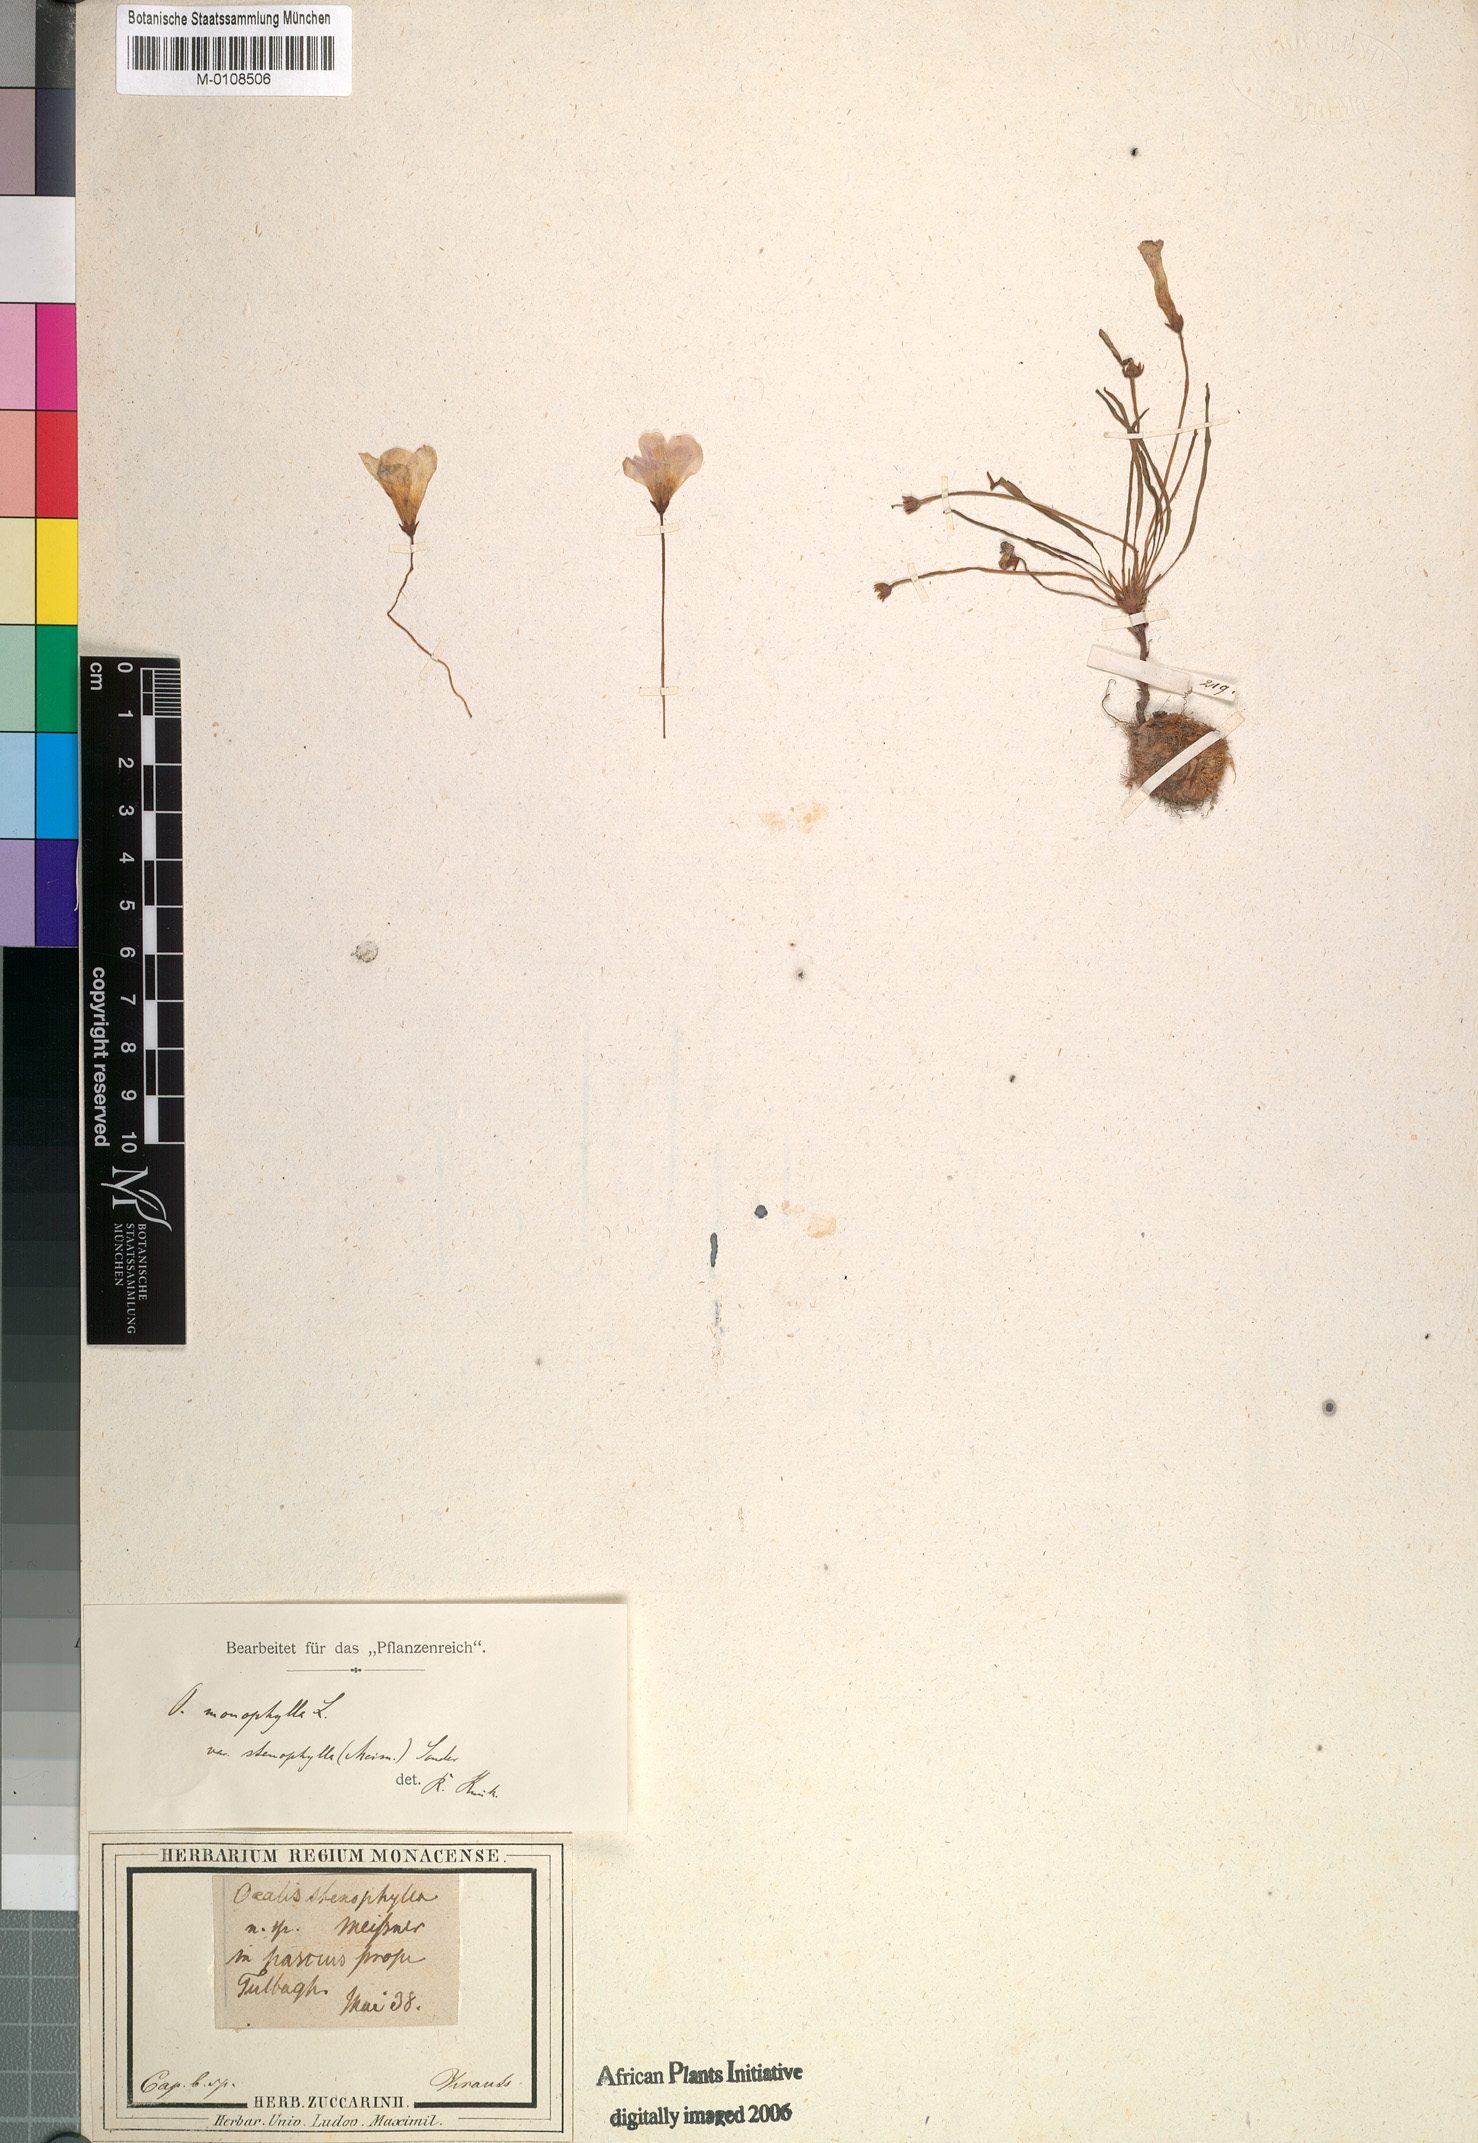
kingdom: Plantae
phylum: Tracheophyta
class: Magnoliopsida
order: Oxalidales
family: Oxalidaceae
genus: Oxalis
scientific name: Oxalis monophylla
